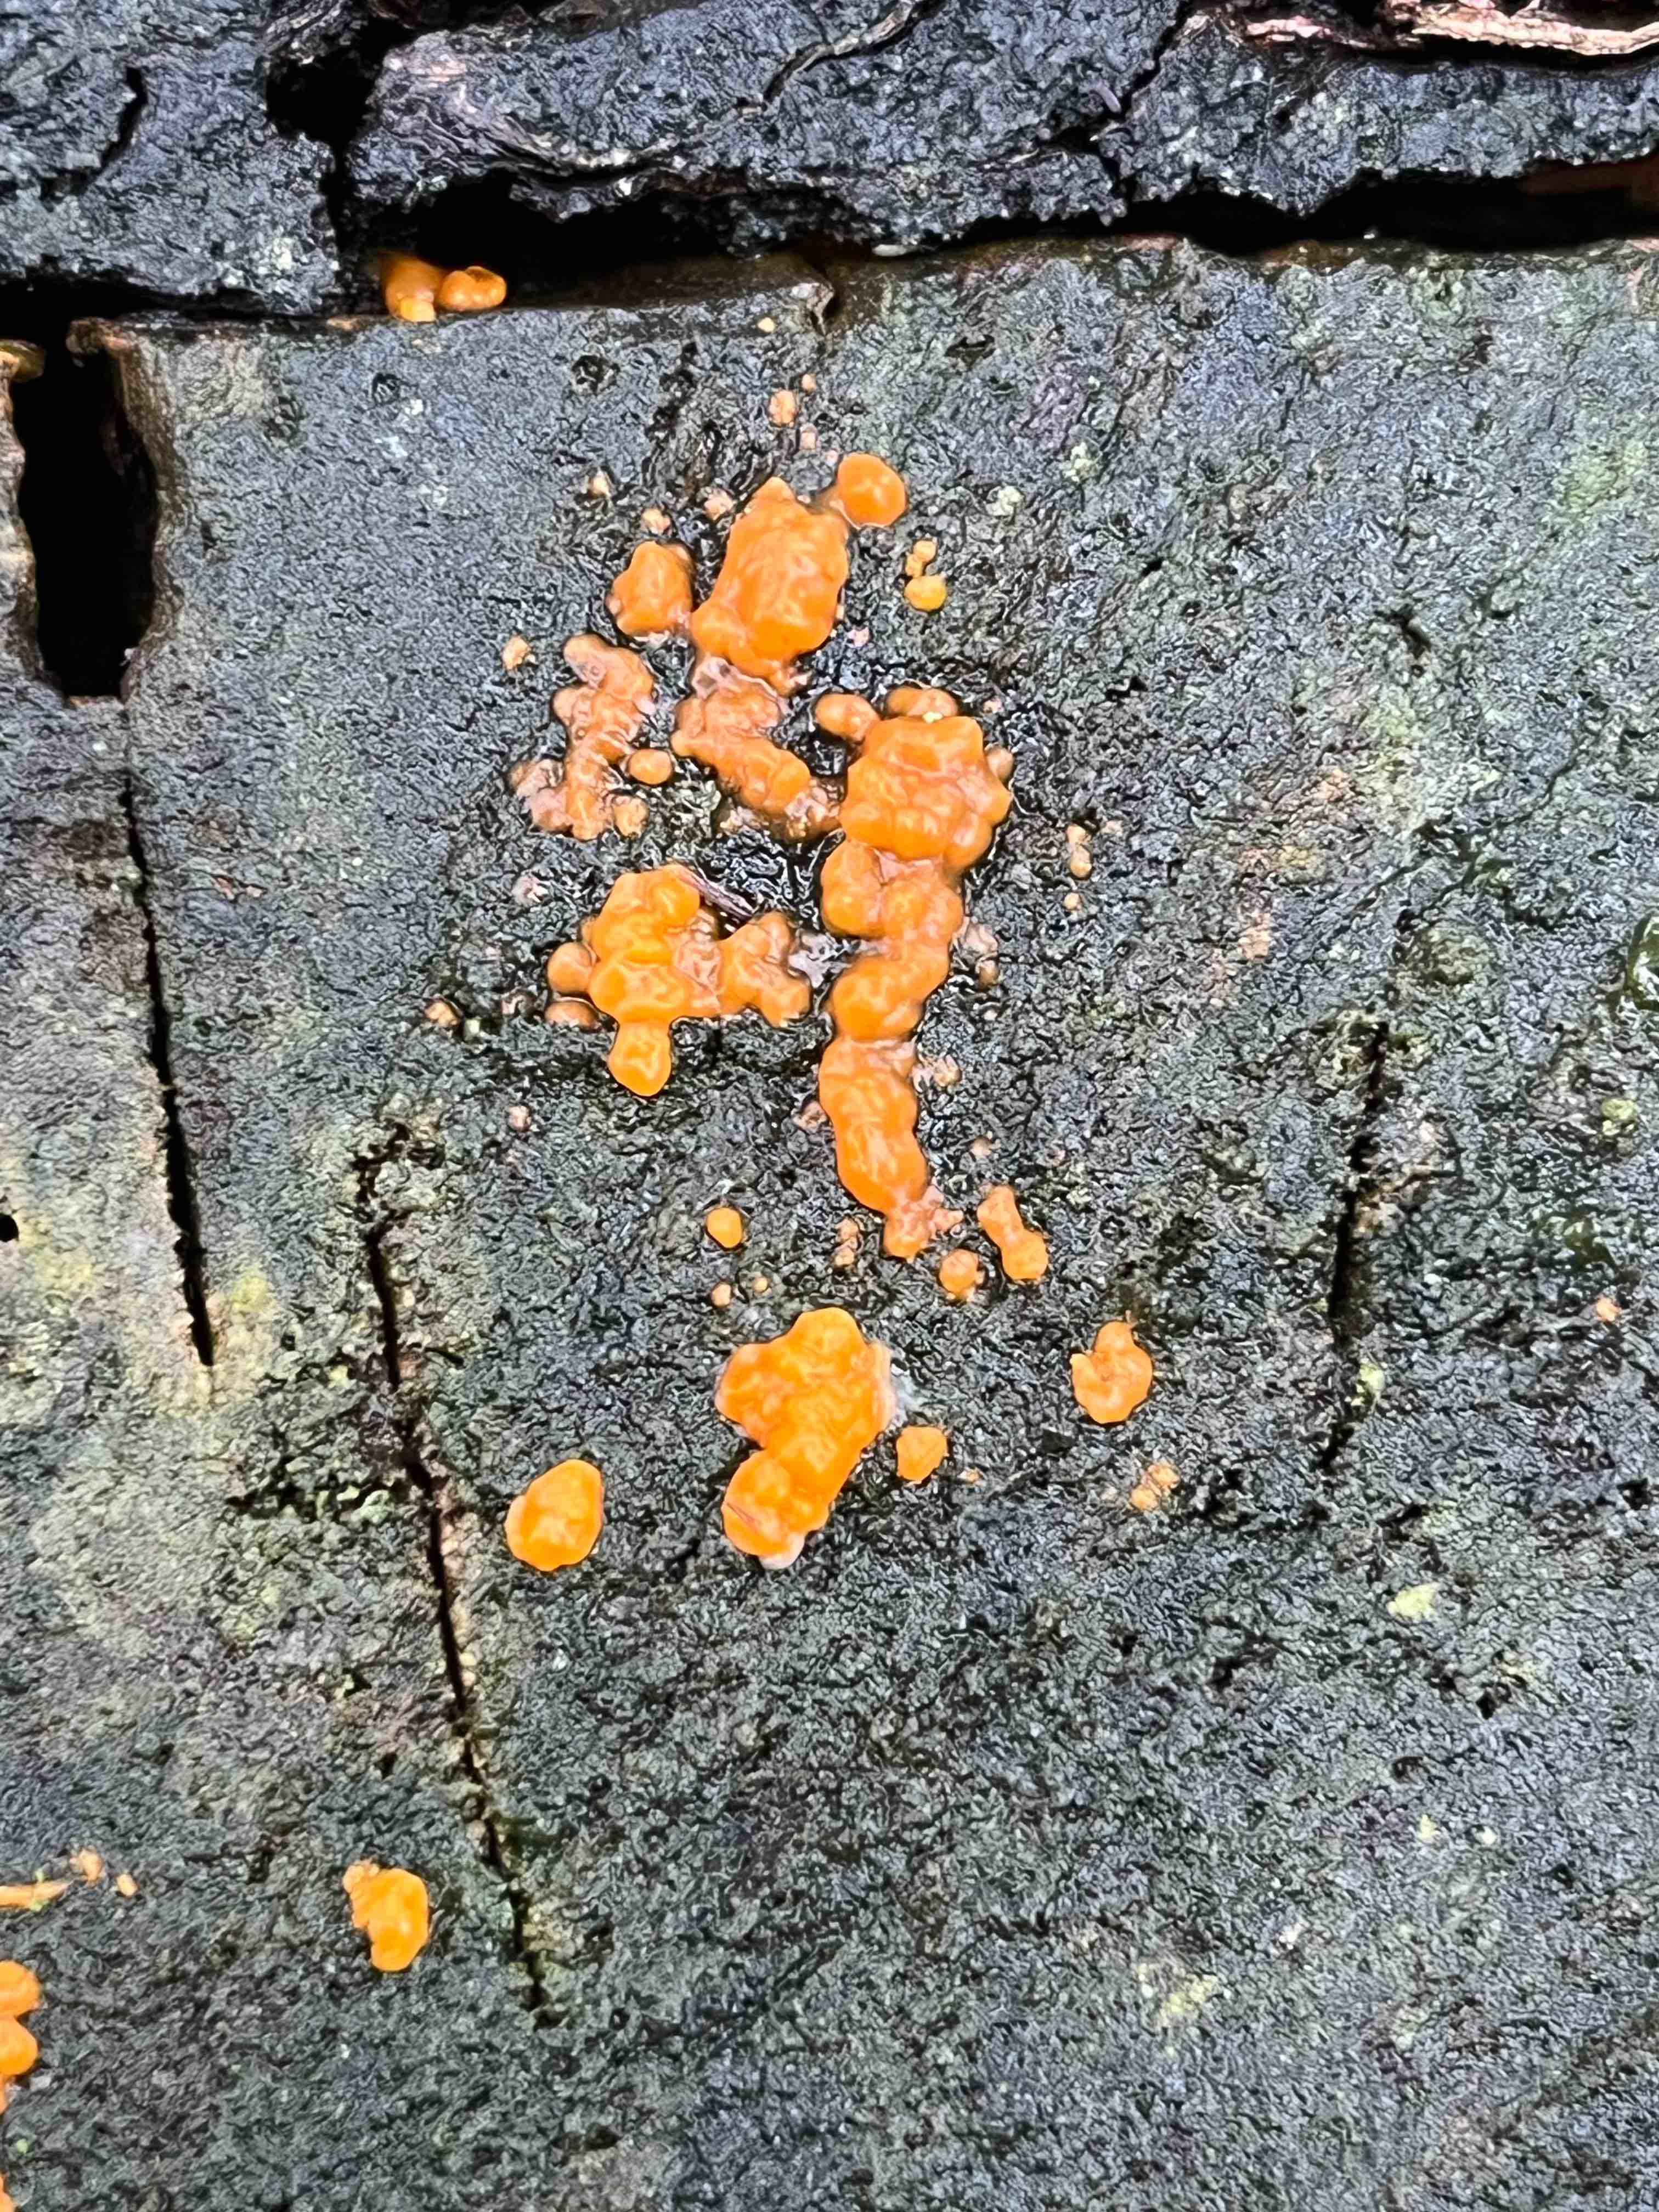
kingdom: Fungi
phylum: Basidiomycota
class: Dacrymycetes
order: Dacrymycetales
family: Dacrymycetaceae
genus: Dacrymyces
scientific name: Dacrymyces stillatus
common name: almindelig tåresvamp
